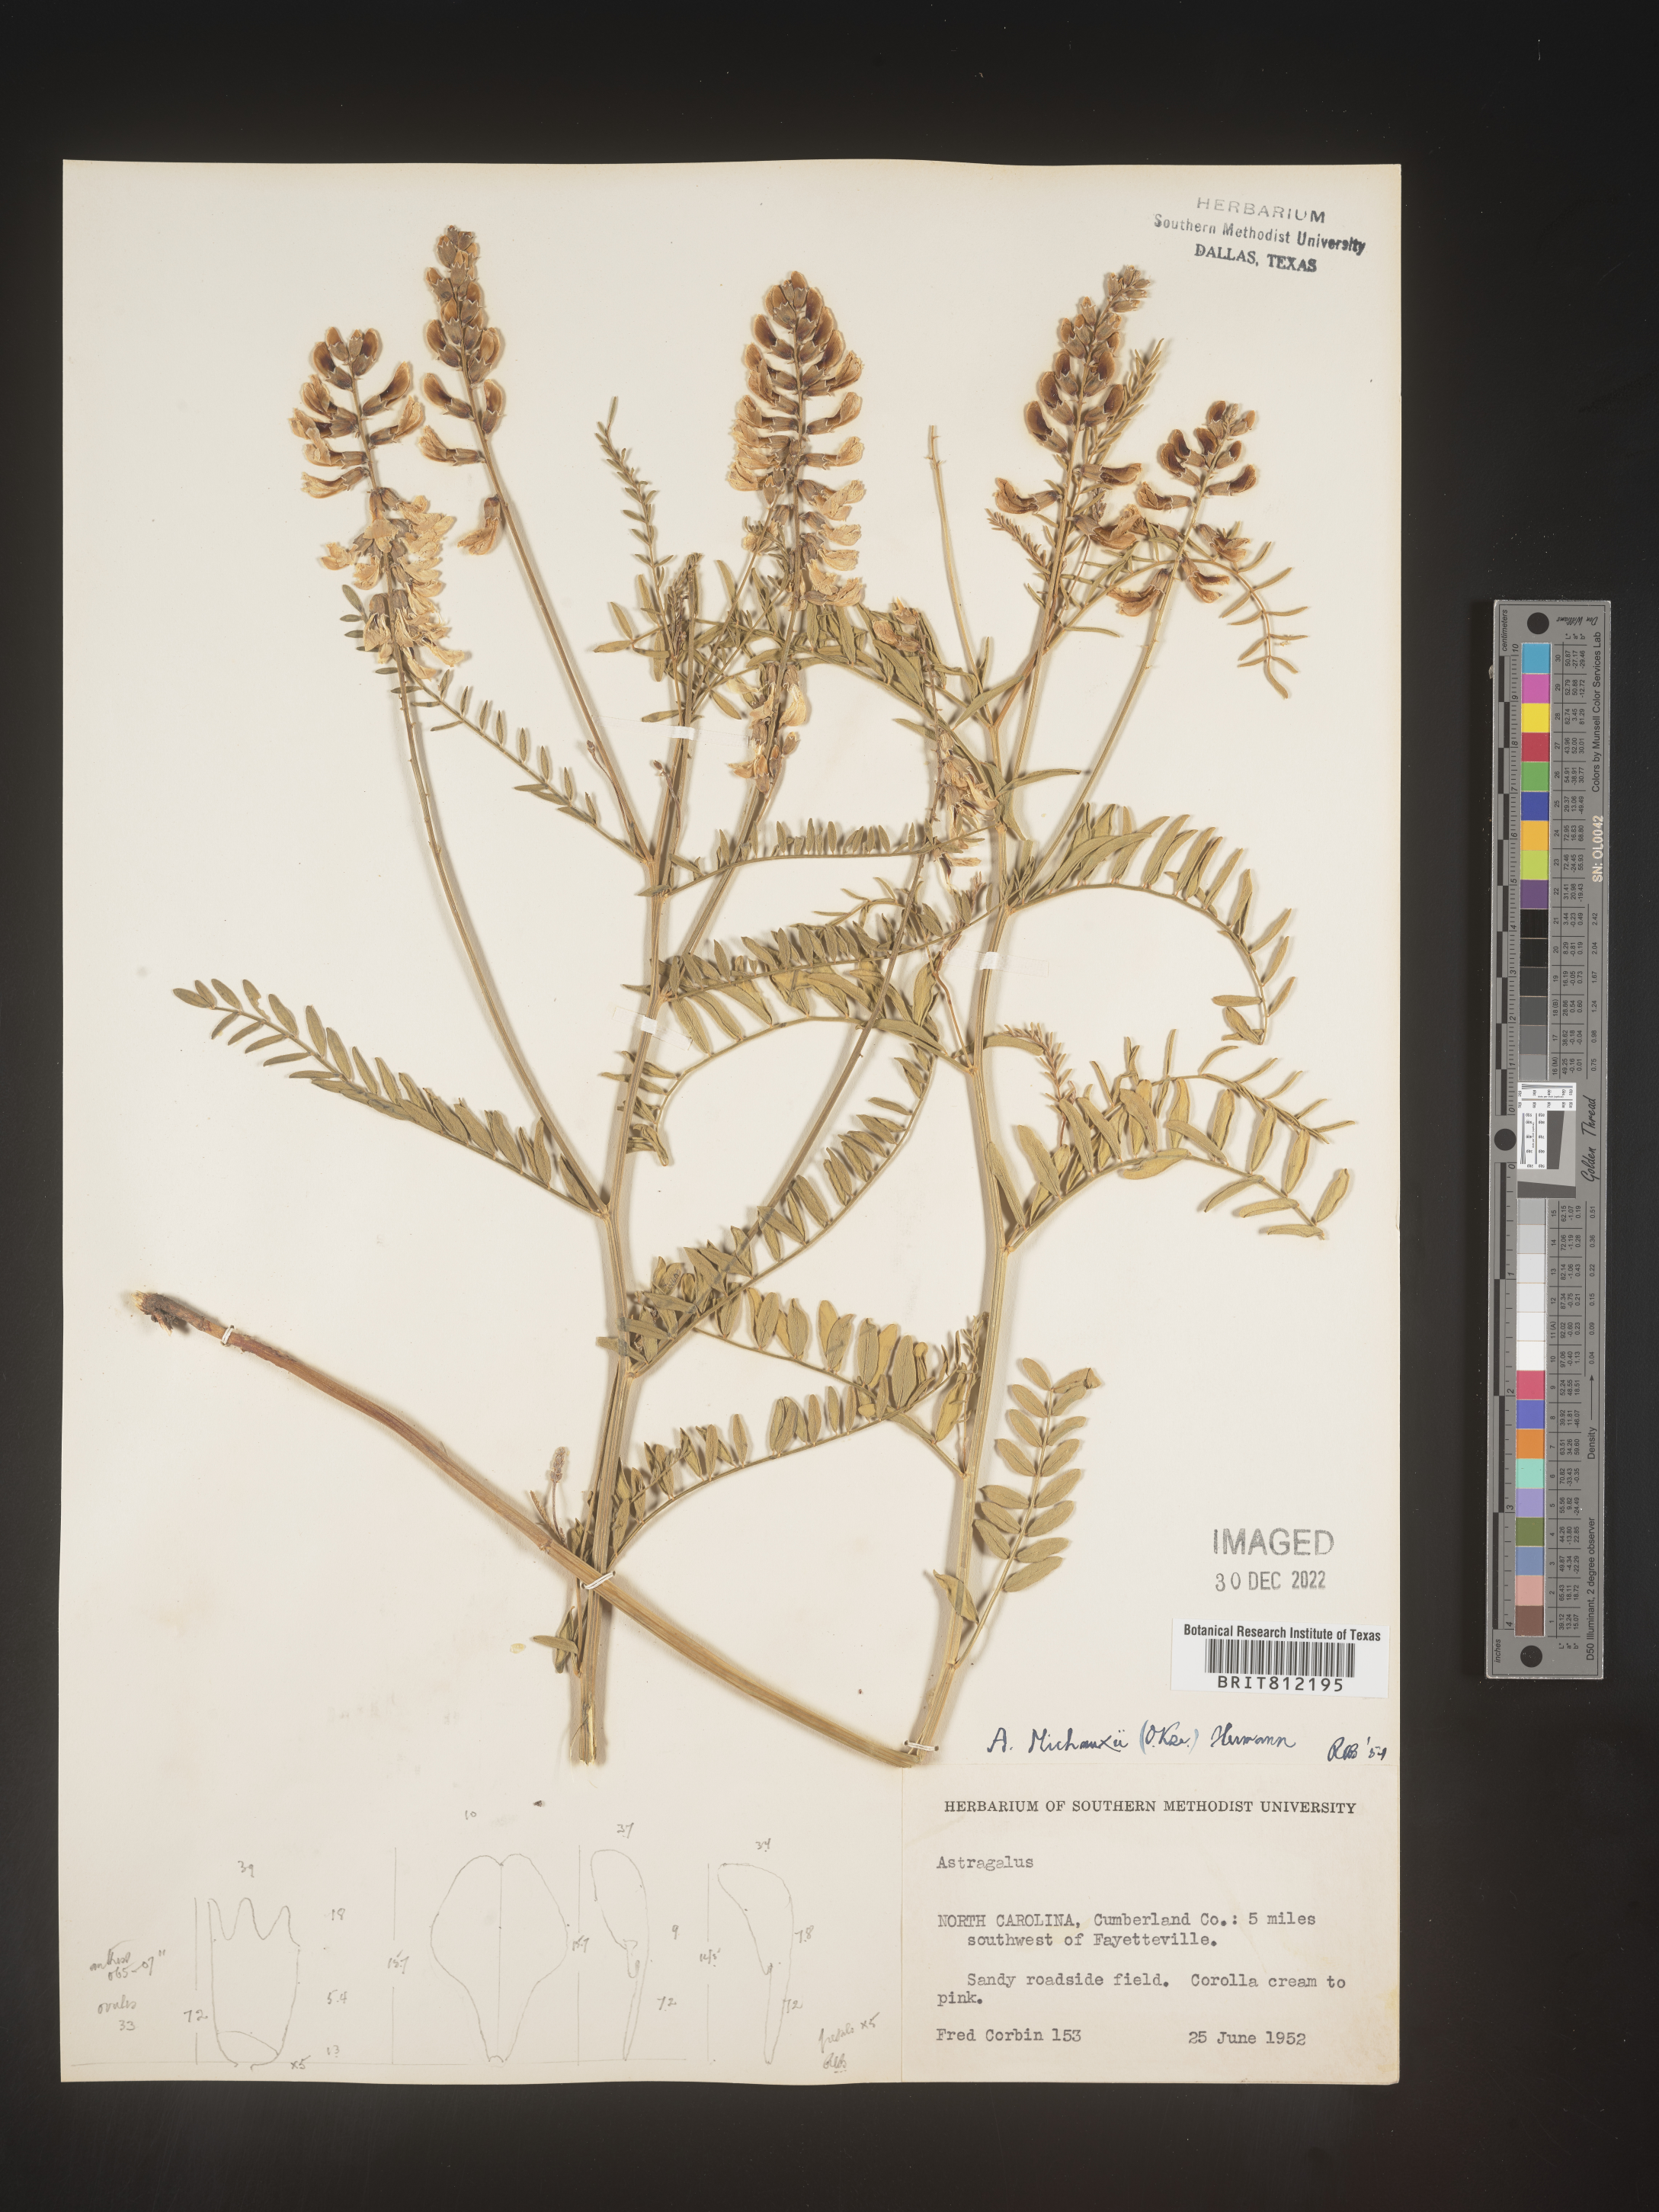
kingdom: Plantae
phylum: Tracheophyta
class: Magnoliopsida
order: Fabales
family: Fabaceae
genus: Astragalus
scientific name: Astragalus michauxii
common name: Michaux milk-vetch
